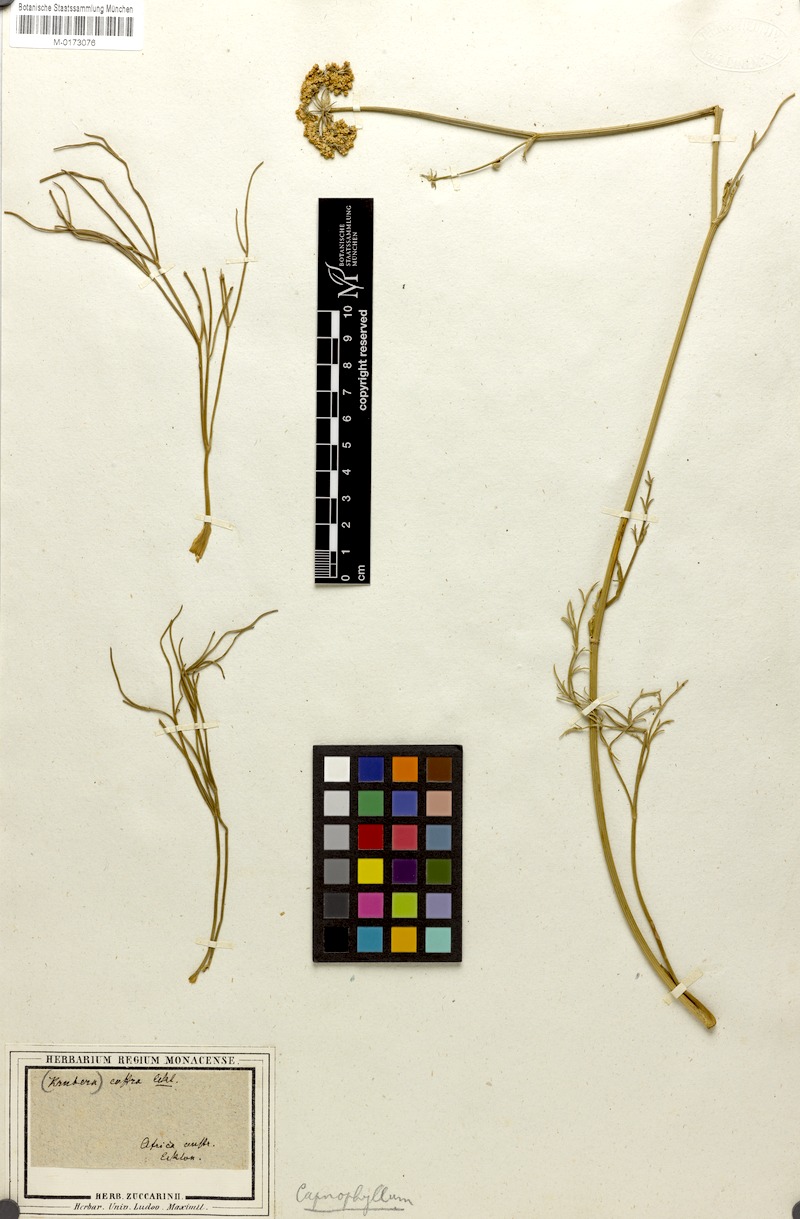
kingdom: Plantae
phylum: Tracheophyta
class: Magnoliopsida
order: Apiales
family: Apiaceae
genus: Stenosemis
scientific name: Stenosemis caffra
